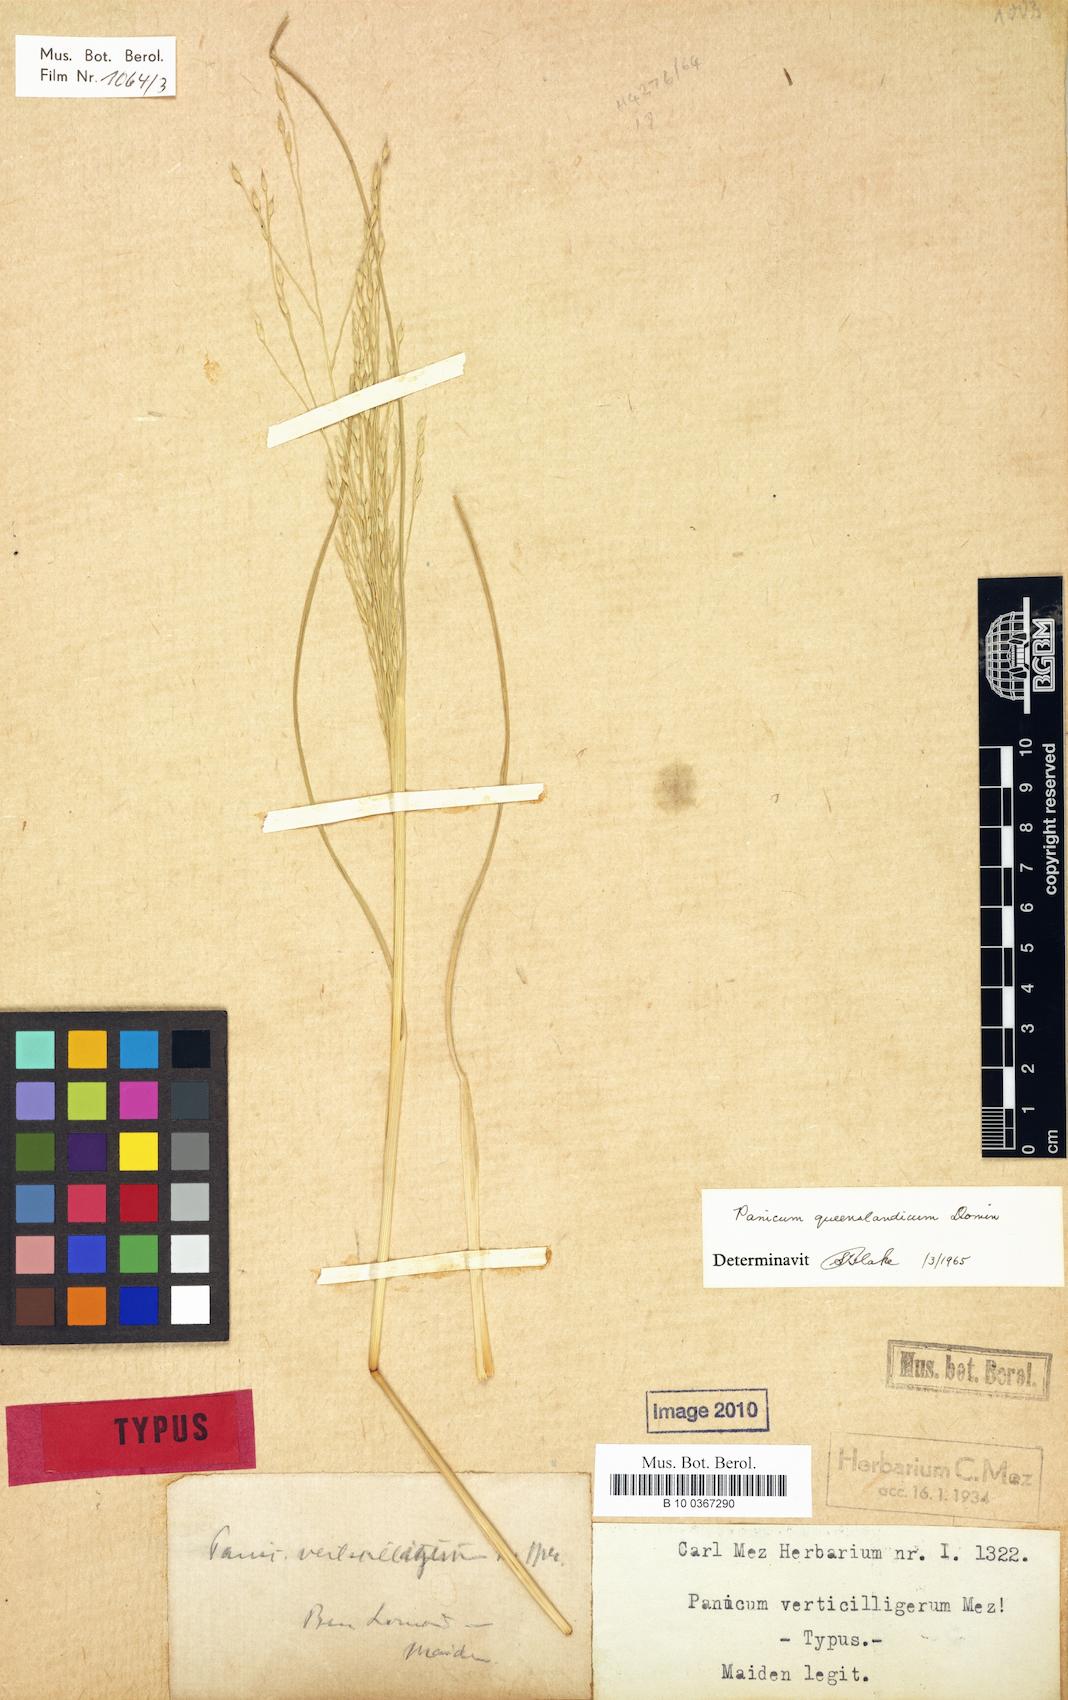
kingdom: Plantae
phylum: Tracheophyta
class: Liliopsida
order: Poales
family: Poaceae
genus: Panicum
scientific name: Panicum queenslandicum
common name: Yabila grass
